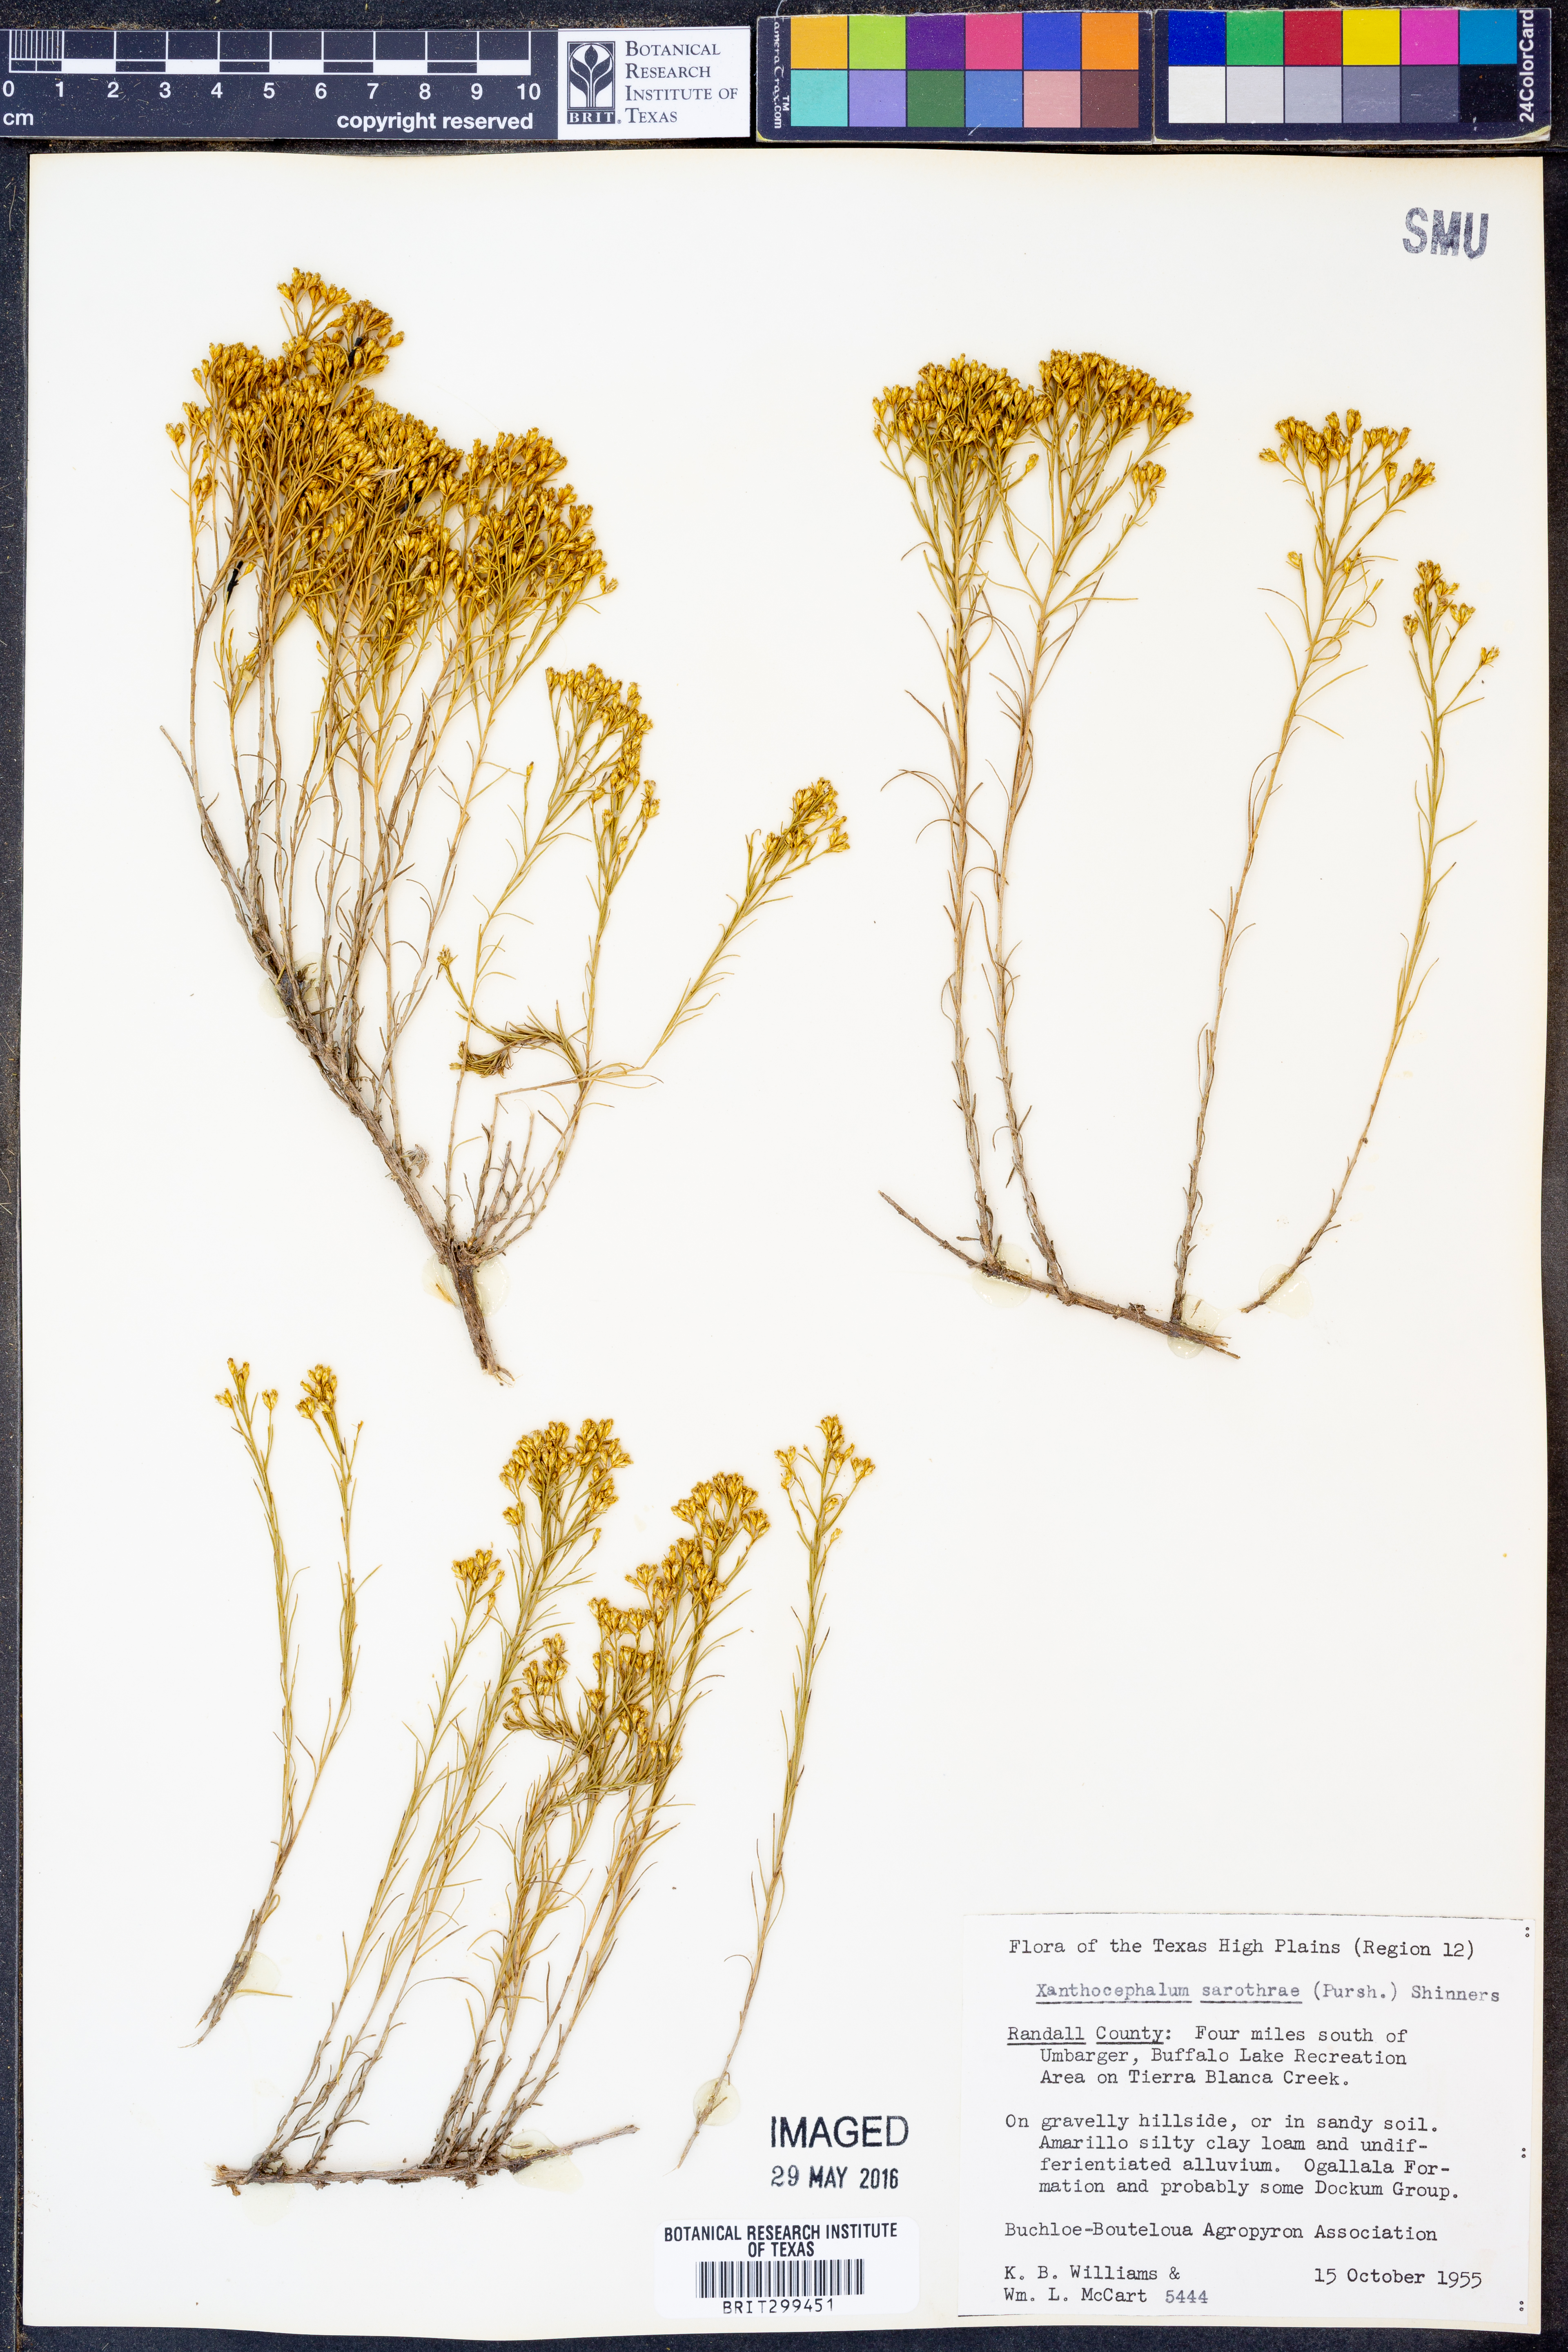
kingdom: Plantae
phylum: Tracheophyta
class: Magnoliopsida
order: Asterales
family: Asteraceae
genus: Gutierrezia
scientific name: Gutierrezia sarothrae
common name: Broom snakeweed
